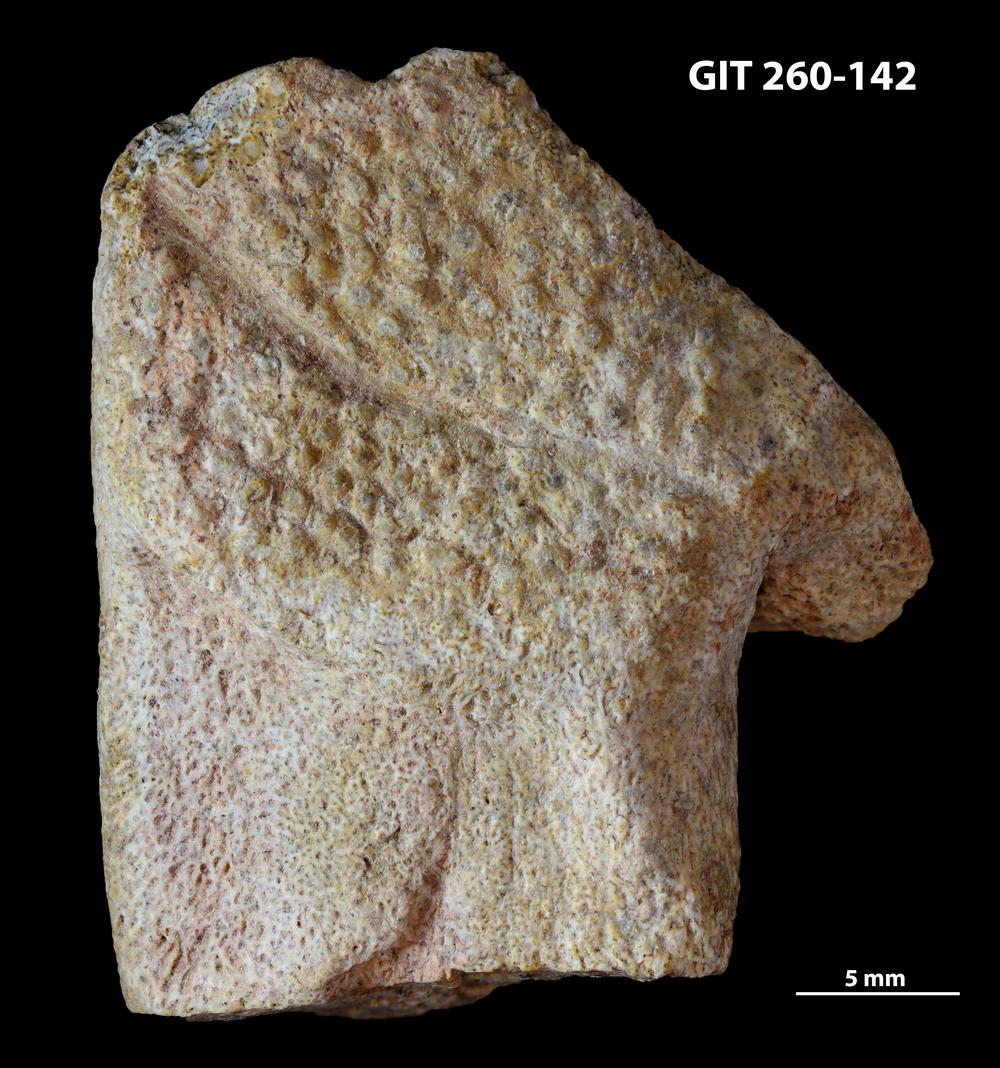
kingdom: Animalia
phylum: Chordata
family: Homostiidae
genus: Homostius
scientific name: Homostius
